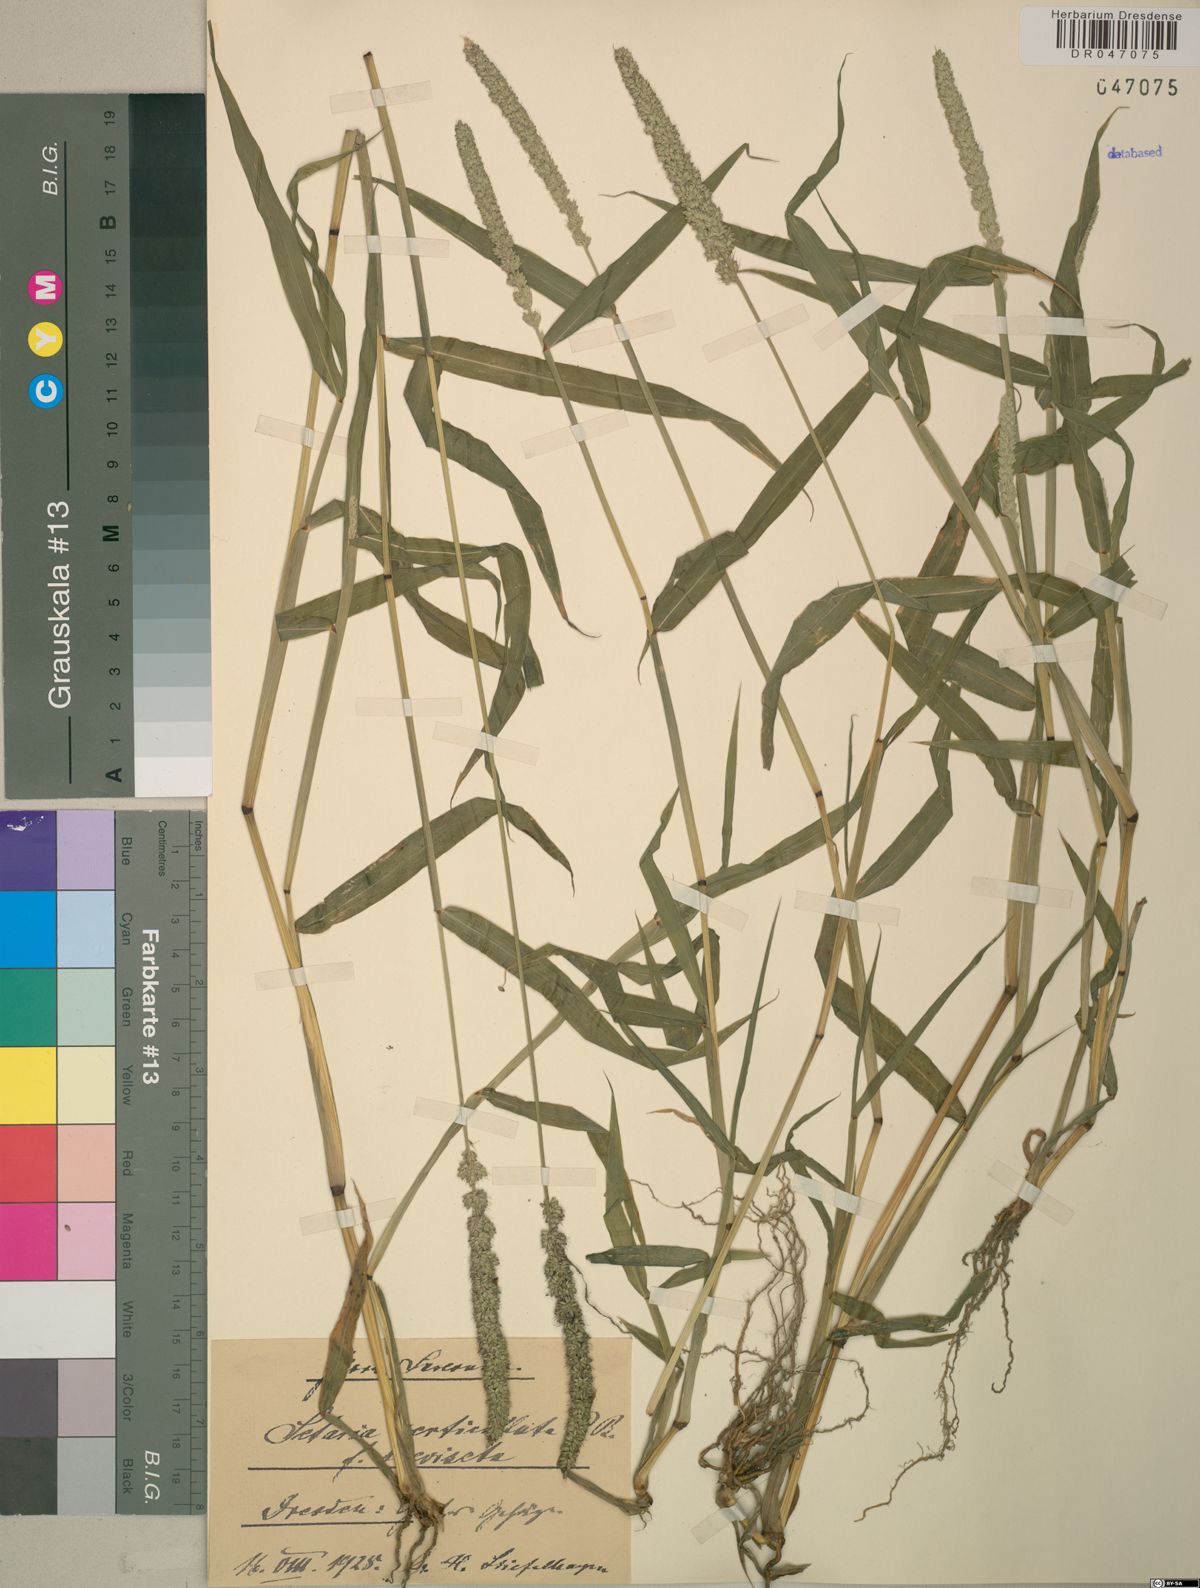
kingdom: Plantae
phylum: Tracheophyta
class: Liliopsida
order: Poales
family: Poaceae
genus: Setaria
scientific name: Setaria verticillata
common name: Hooked bristlegrass
